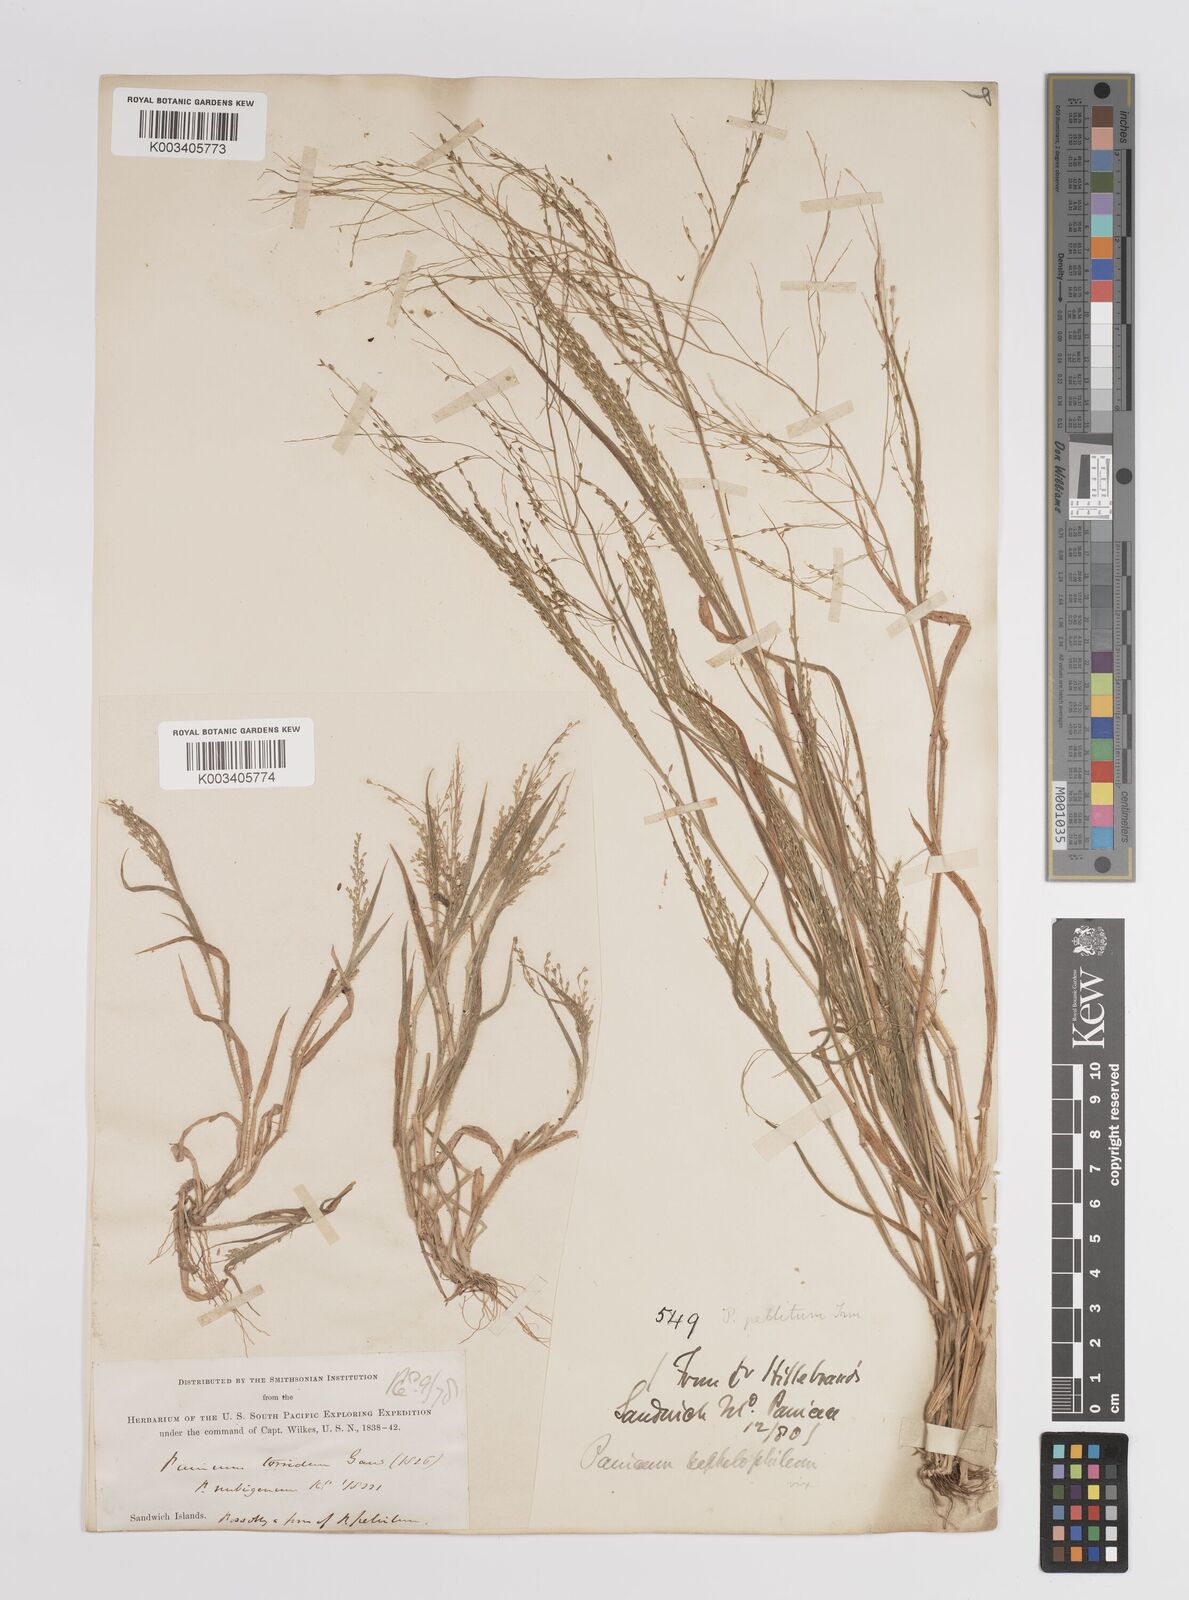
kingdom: Plantae
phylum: Tracheophyta
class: Liliopsida
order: Poales
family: Poaceae
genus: Panicum
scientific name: Panicum pellitum
